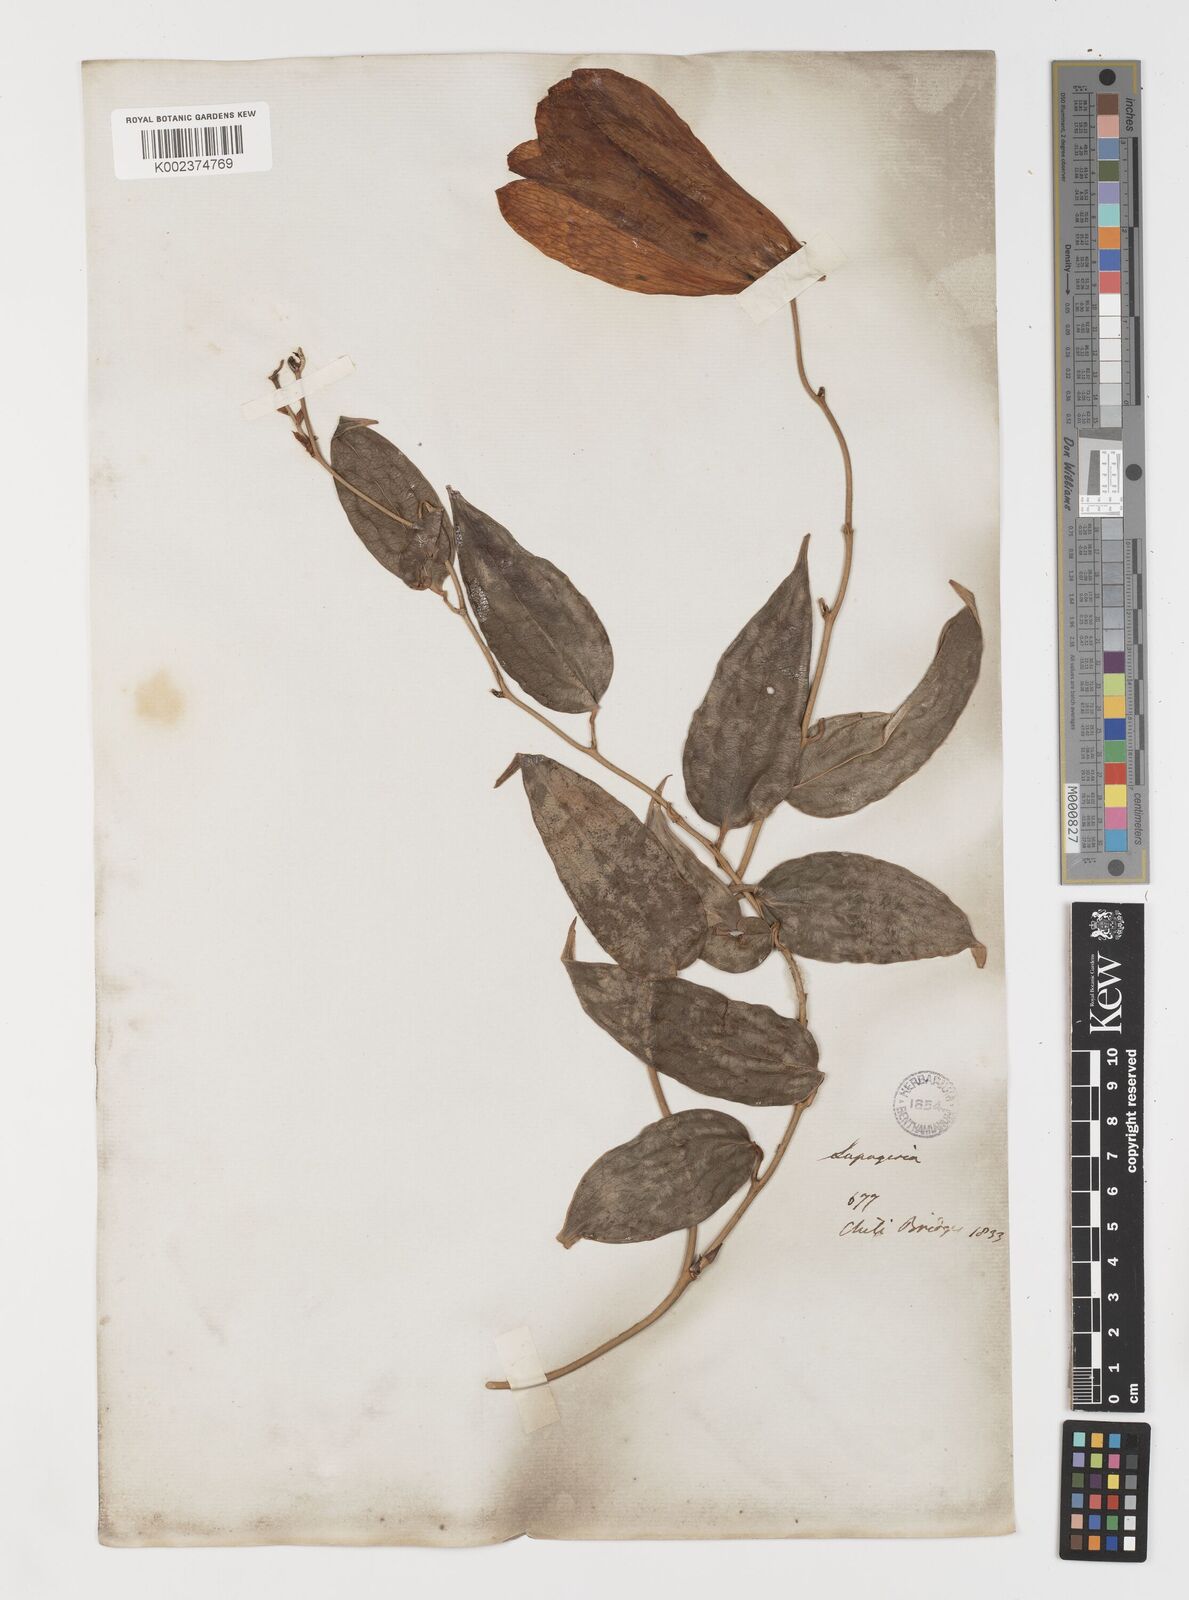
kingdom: Plantae
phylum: Tracheophyta
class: Liliopsida
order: Liliales
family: Philesiaceae
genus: Lapageria
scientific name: Lapageria rosea
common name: Chilean-bellflower
